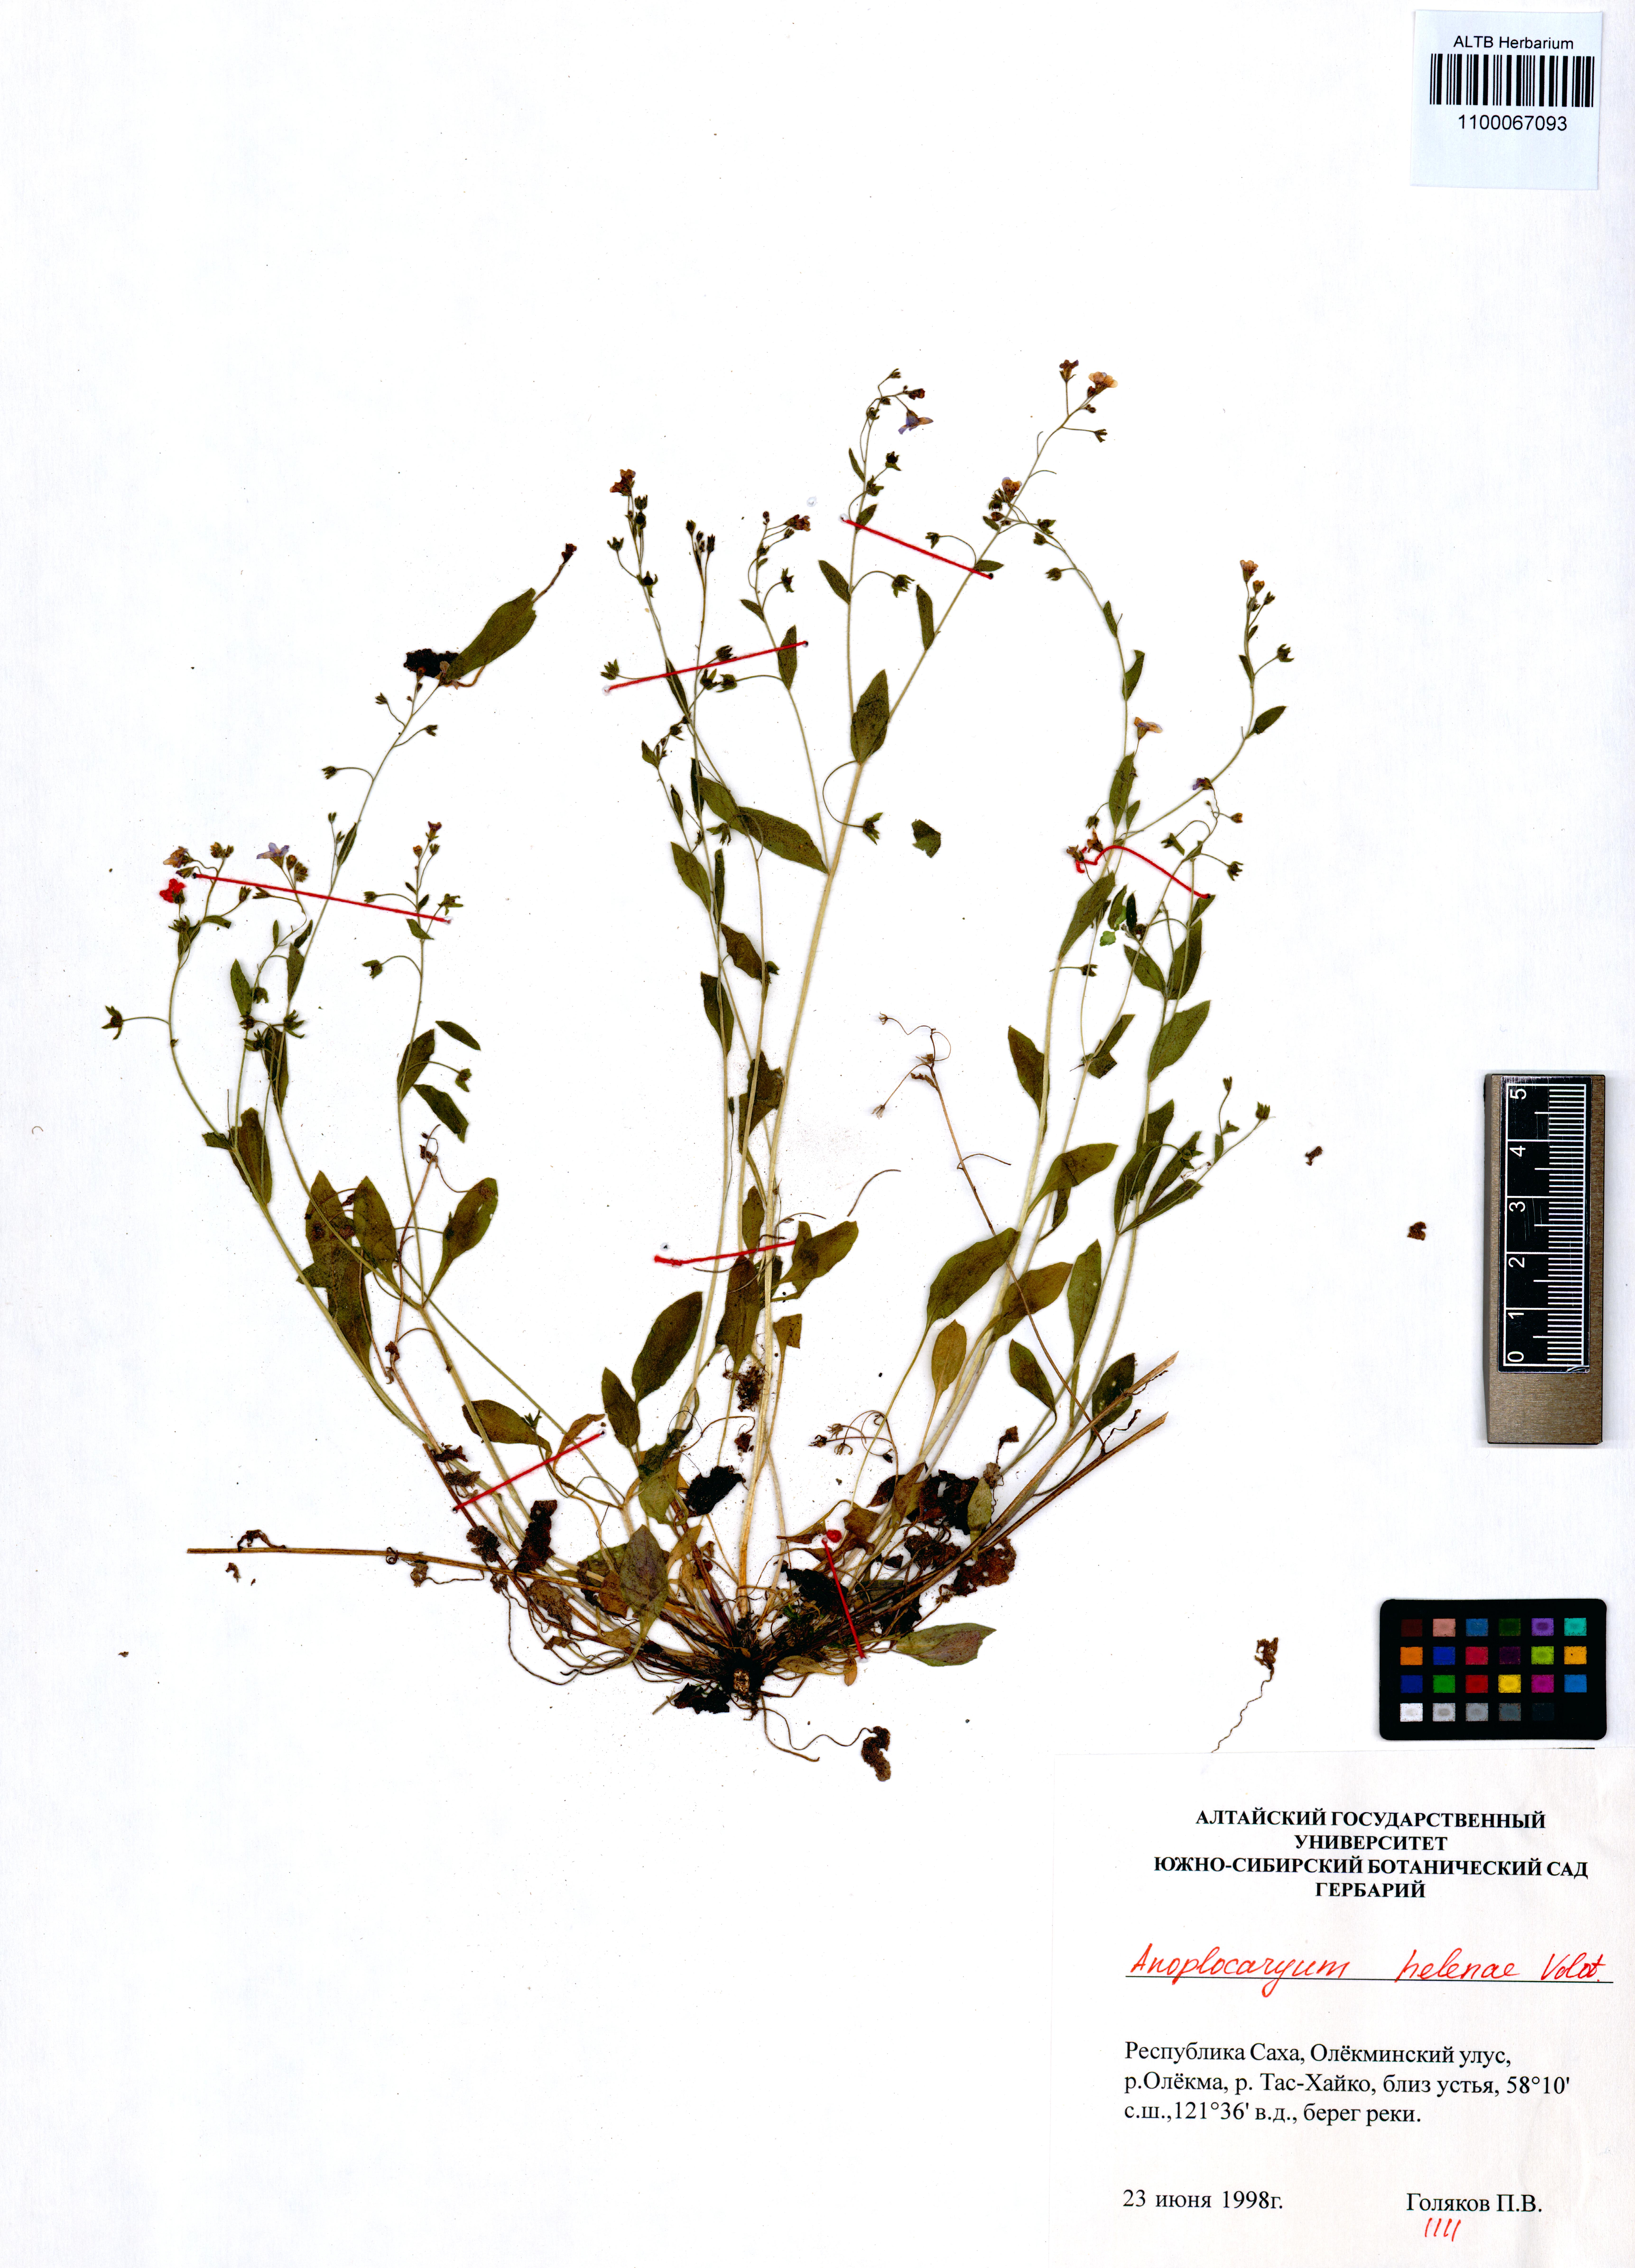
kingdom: Plantae
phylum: Tracheophyta
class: Magnoliopsida
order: Boraginales
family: Boraginaceae
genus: Anoplocaryum
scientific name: Anoplocaryum helenae
